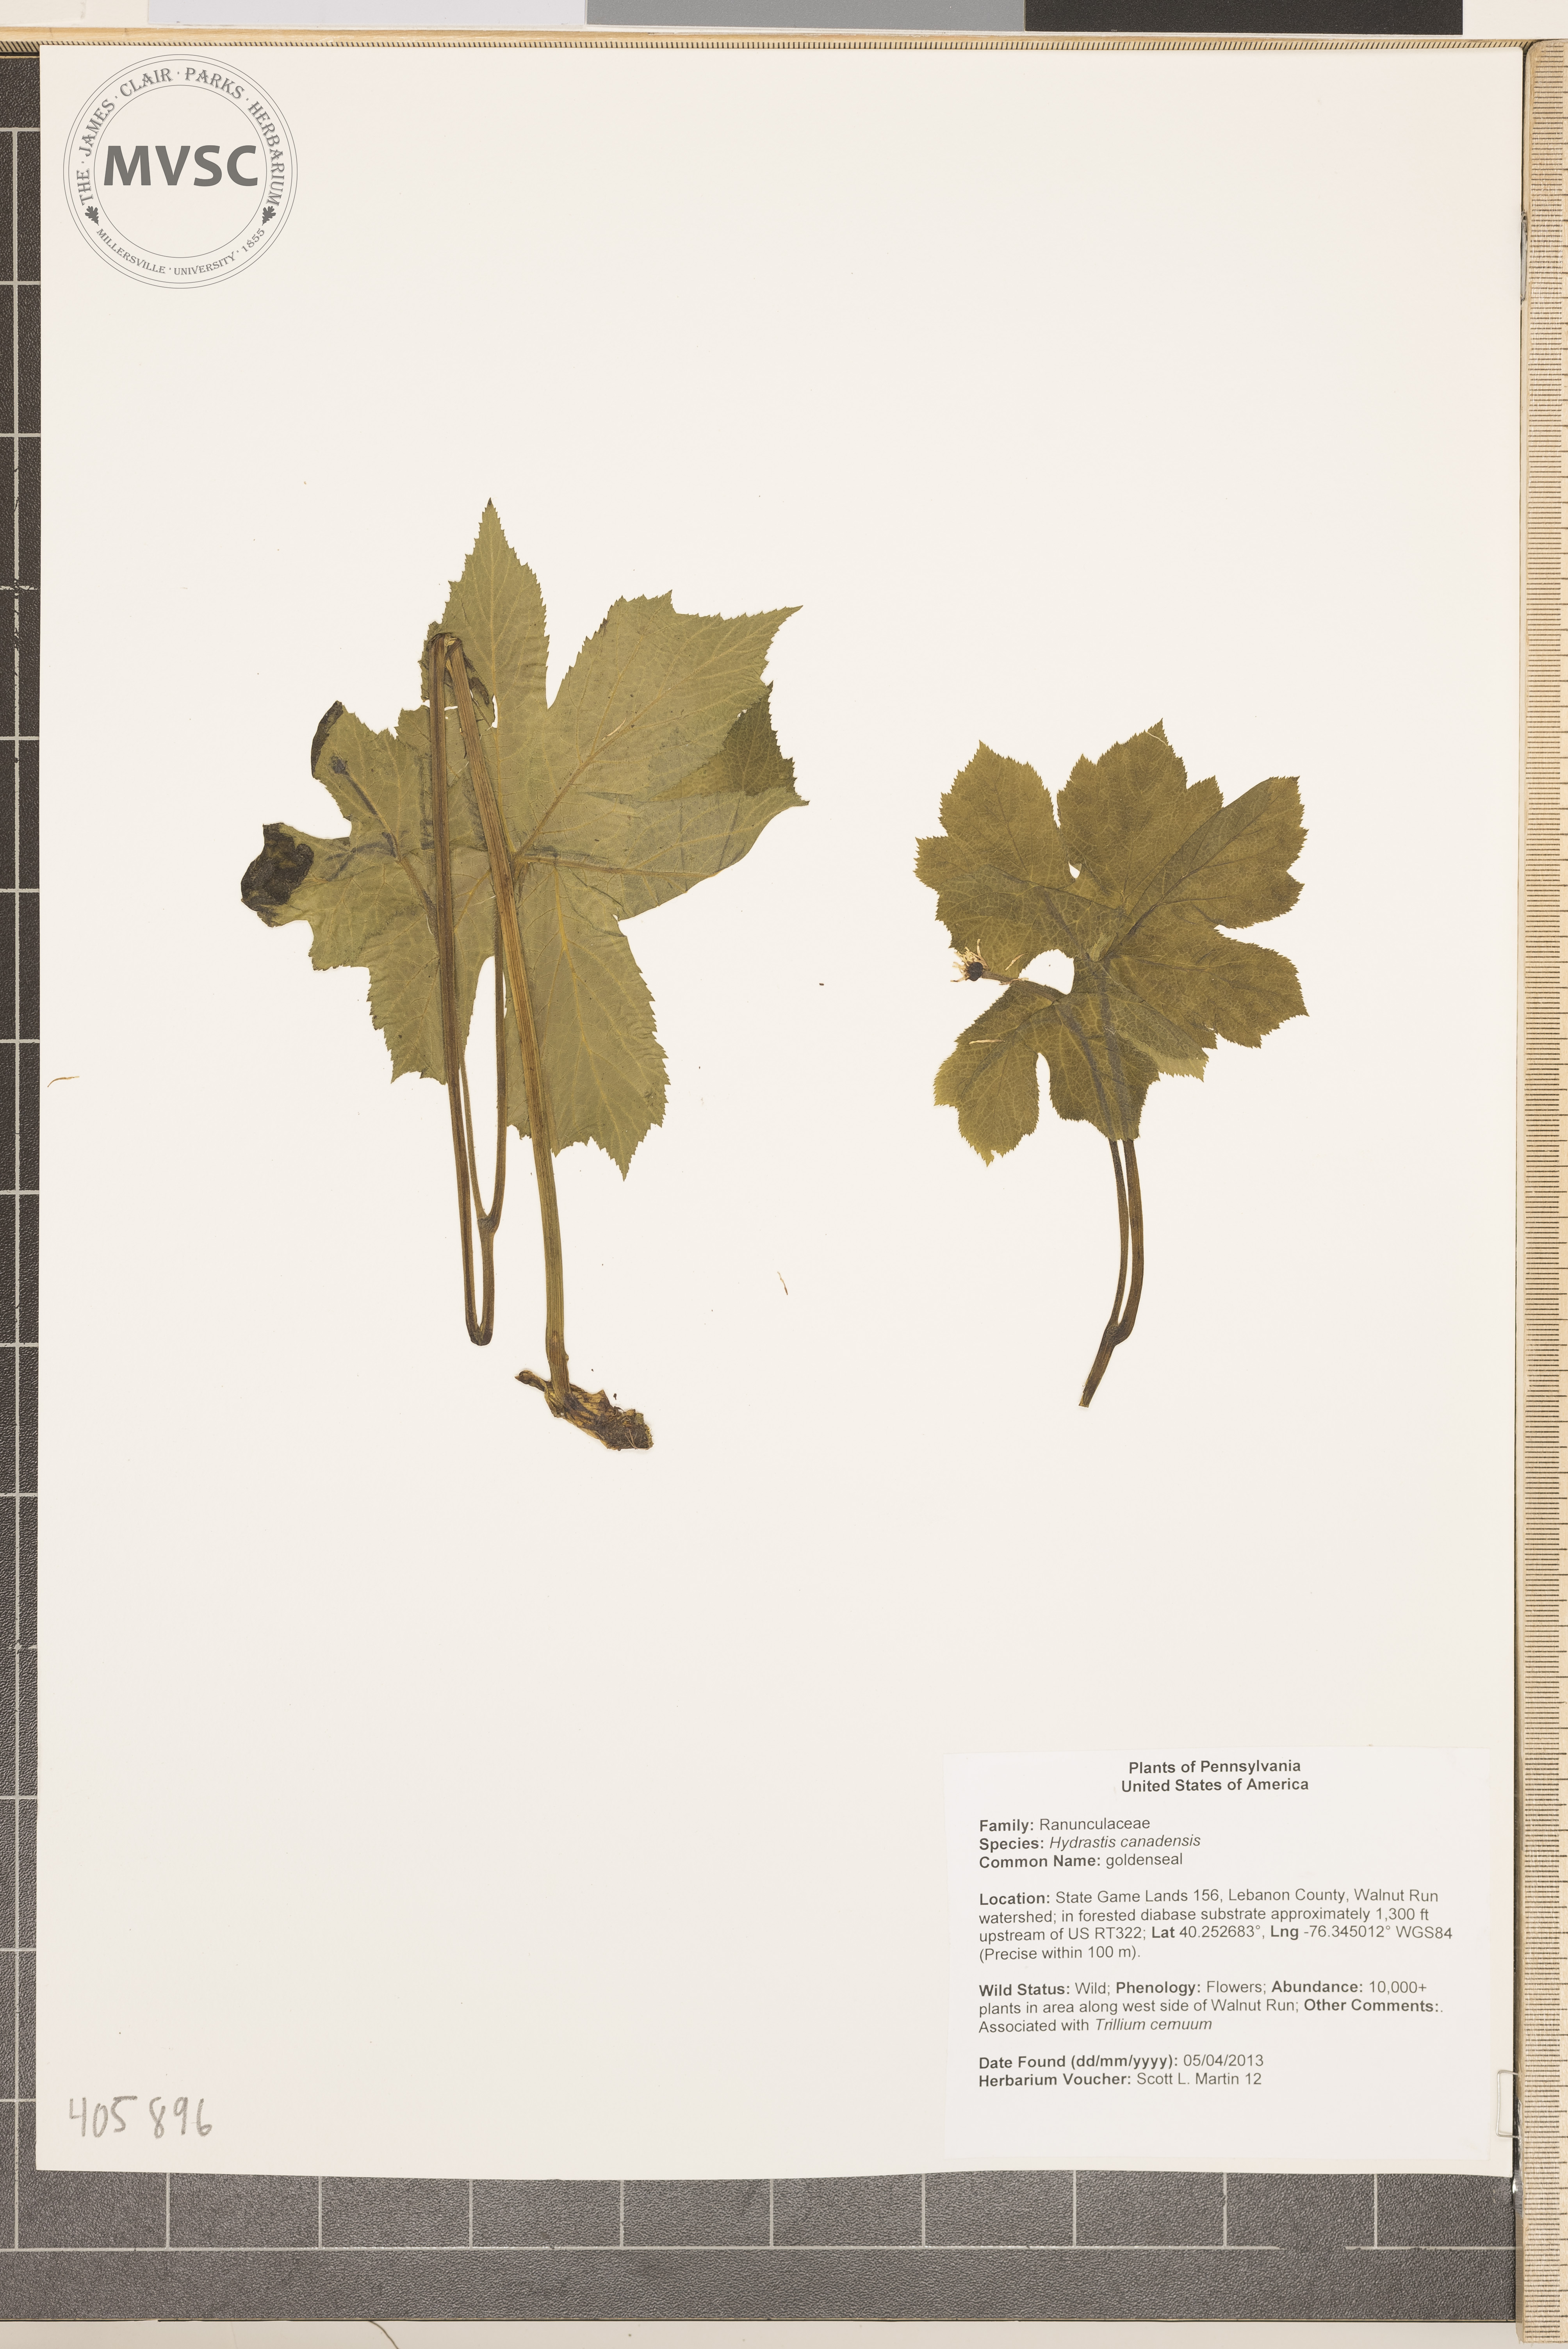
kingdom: Plantae
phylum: Tracheophyta
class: Magnoliopsida
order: Ranunculales
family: Ranunculaceae
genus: Hydrastis
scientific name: Hydrastis canadensis
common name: goldenseal
